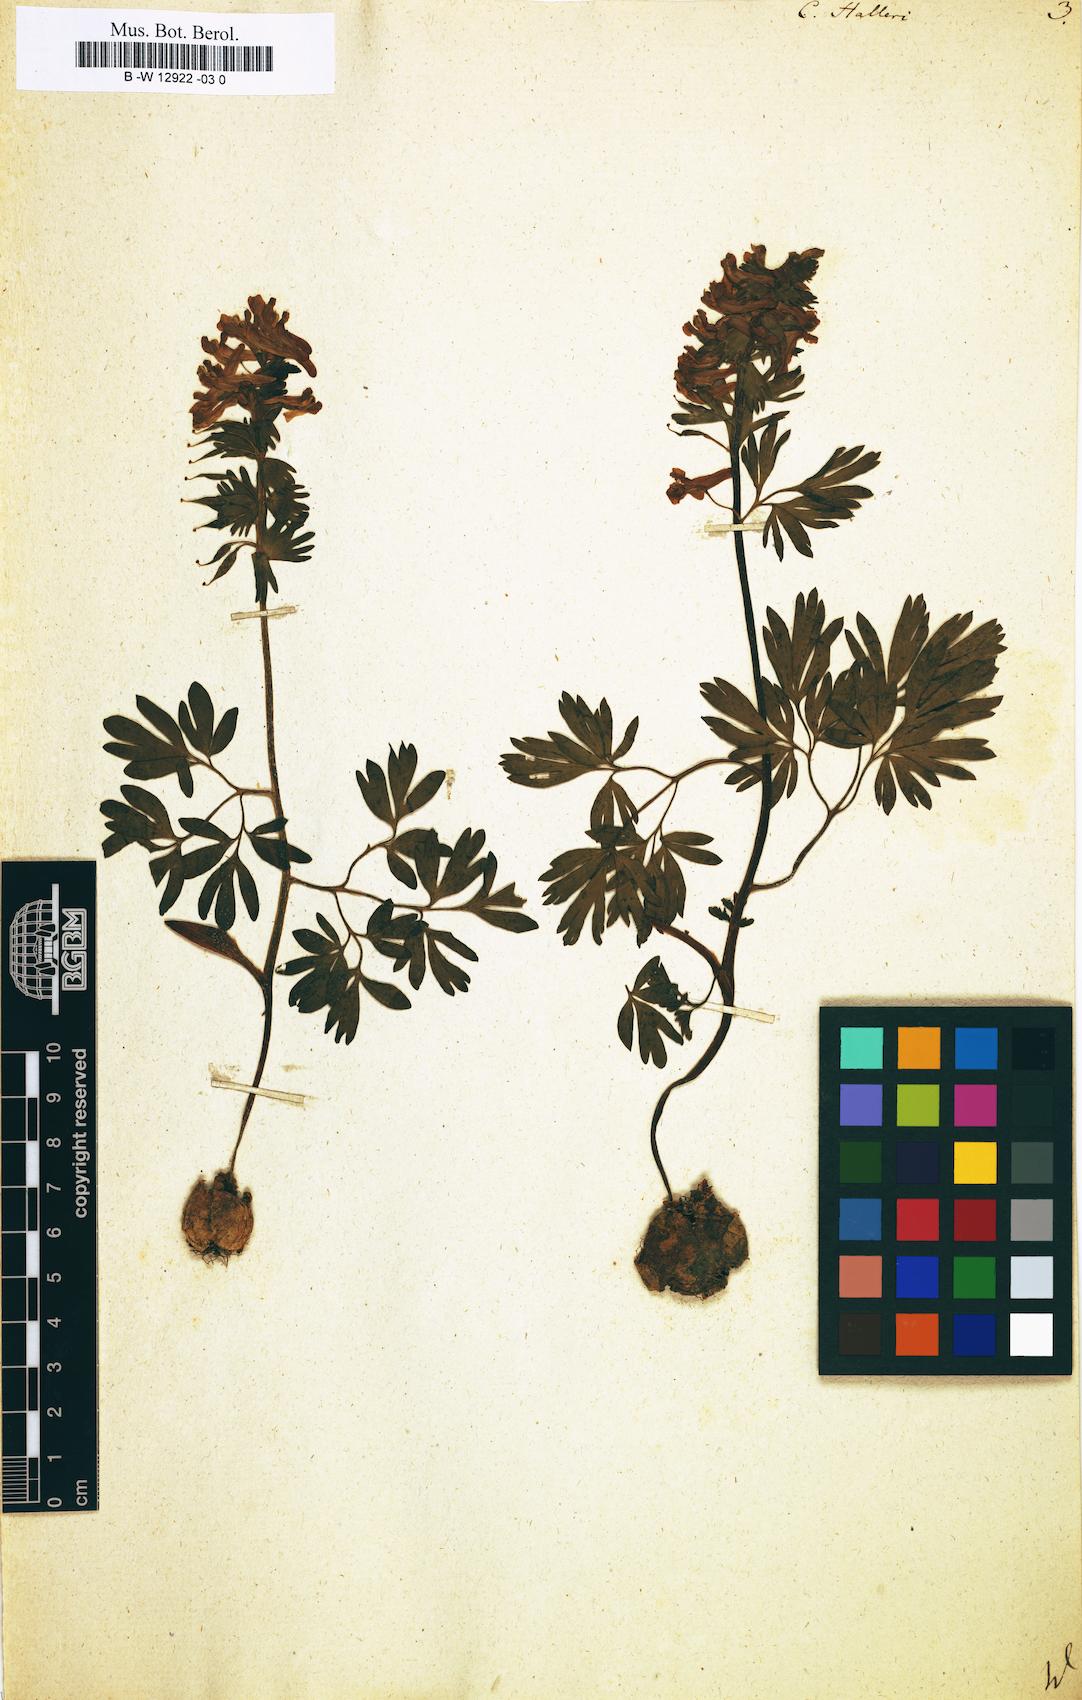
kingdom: Plantae
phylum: Tracheophyta
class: Magnoliopsida
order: Ranunculales
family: Papaveraceae
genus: Corydalis
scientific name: Corydalis solida
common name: Bird-in-a-bush
